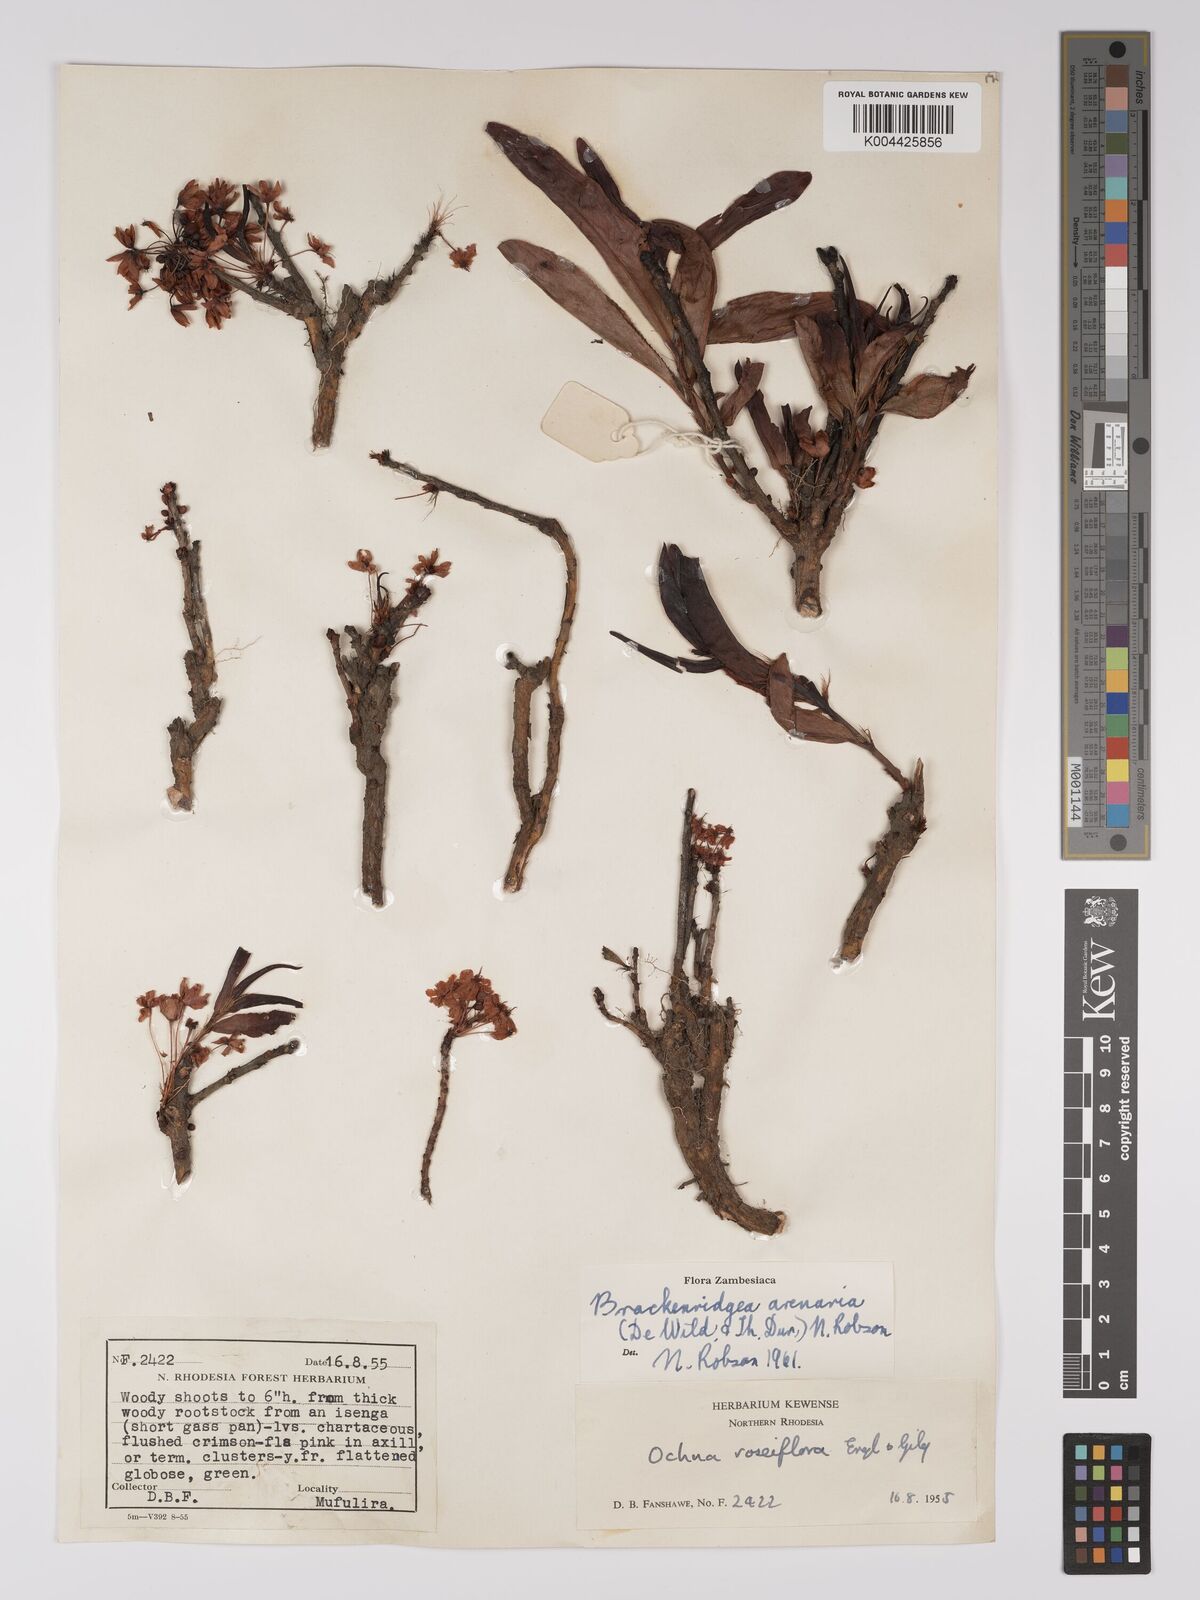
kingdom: Plantae
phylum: Tracheophyta
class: Magnoliopsida
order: Malpighiales
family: Ochnaceae
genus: Ochna
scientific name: Ochna arenaria
